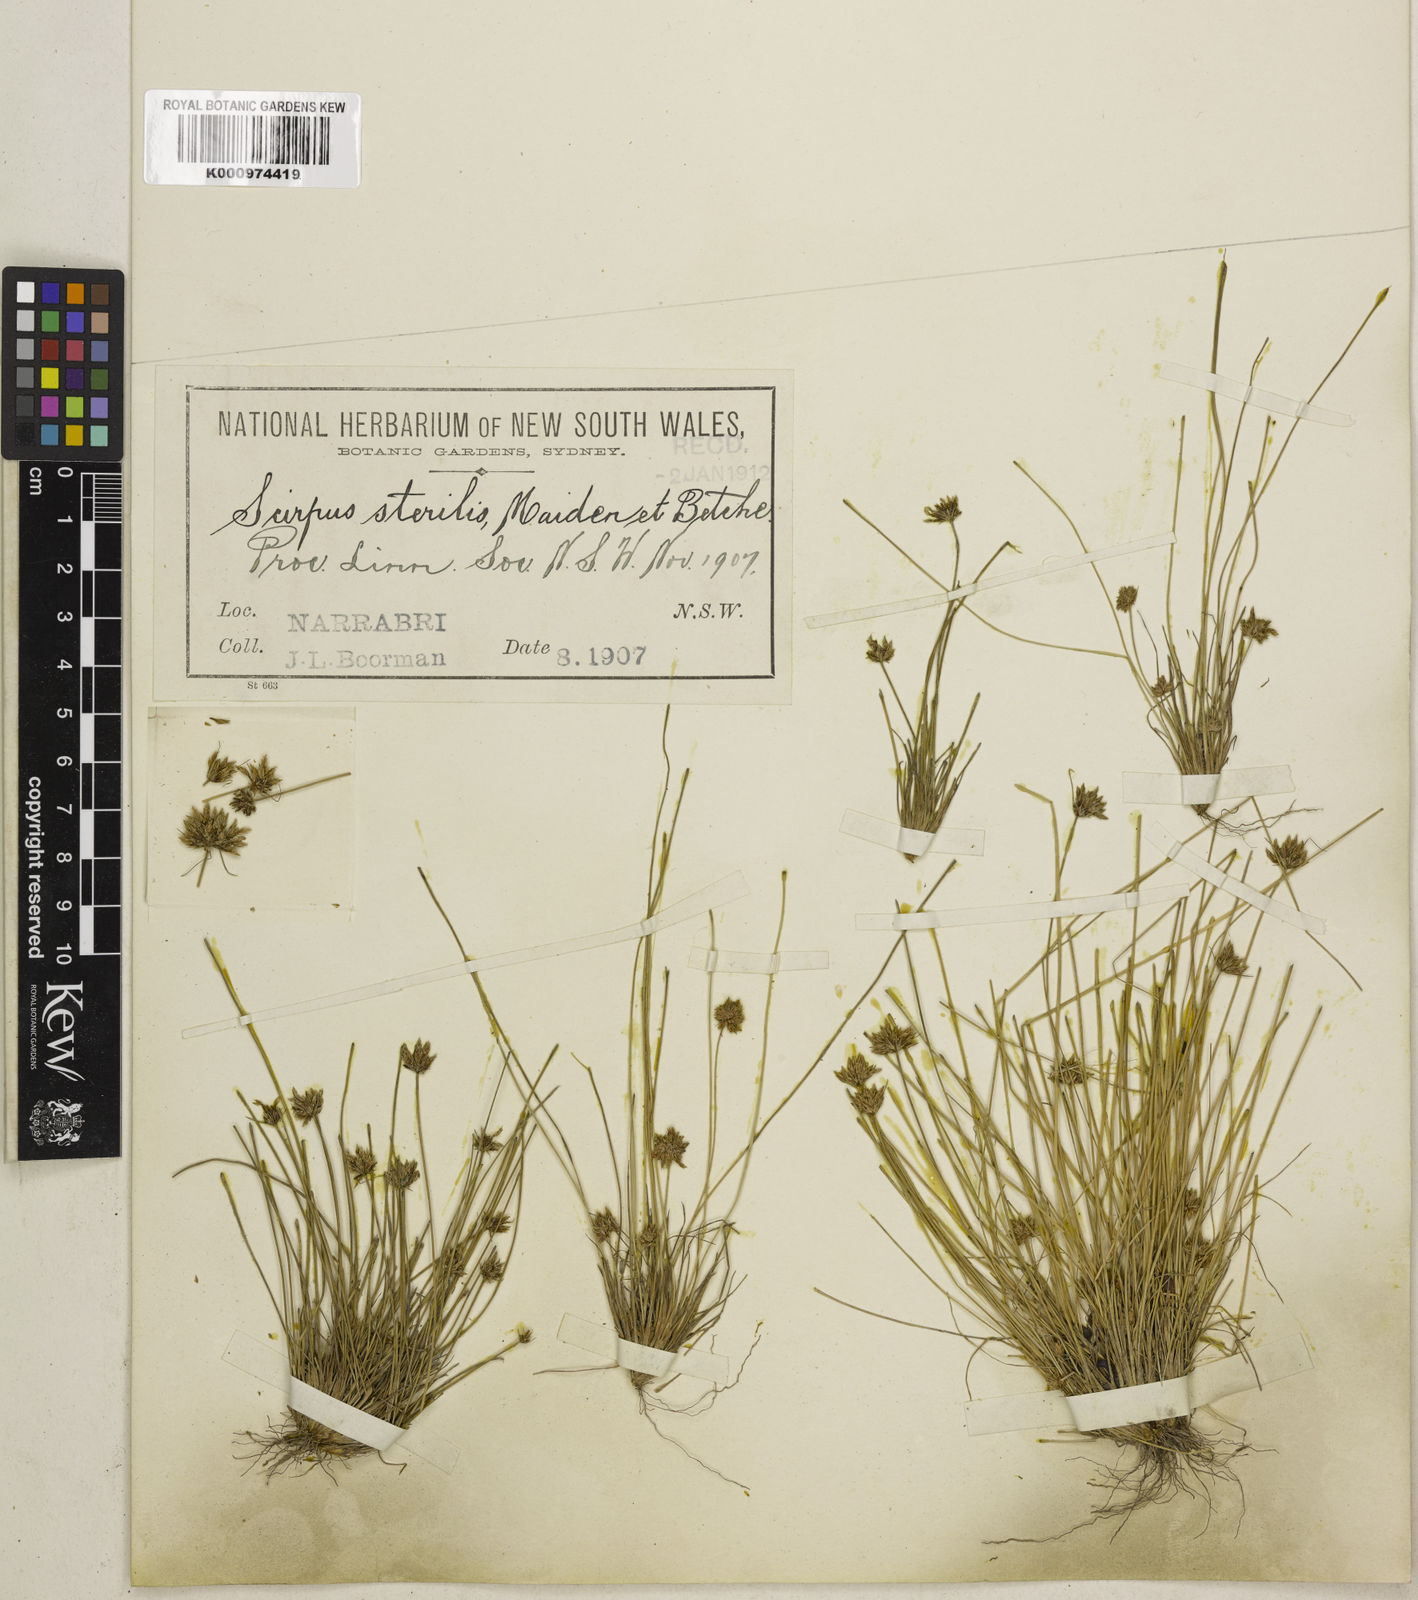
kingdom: Plantae
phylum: Tracheophyta
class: Liliopsida
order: Poales
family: Cyperaceae
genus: Bulbostylis
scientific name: Bulbostylis barbata
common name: Watergrass
